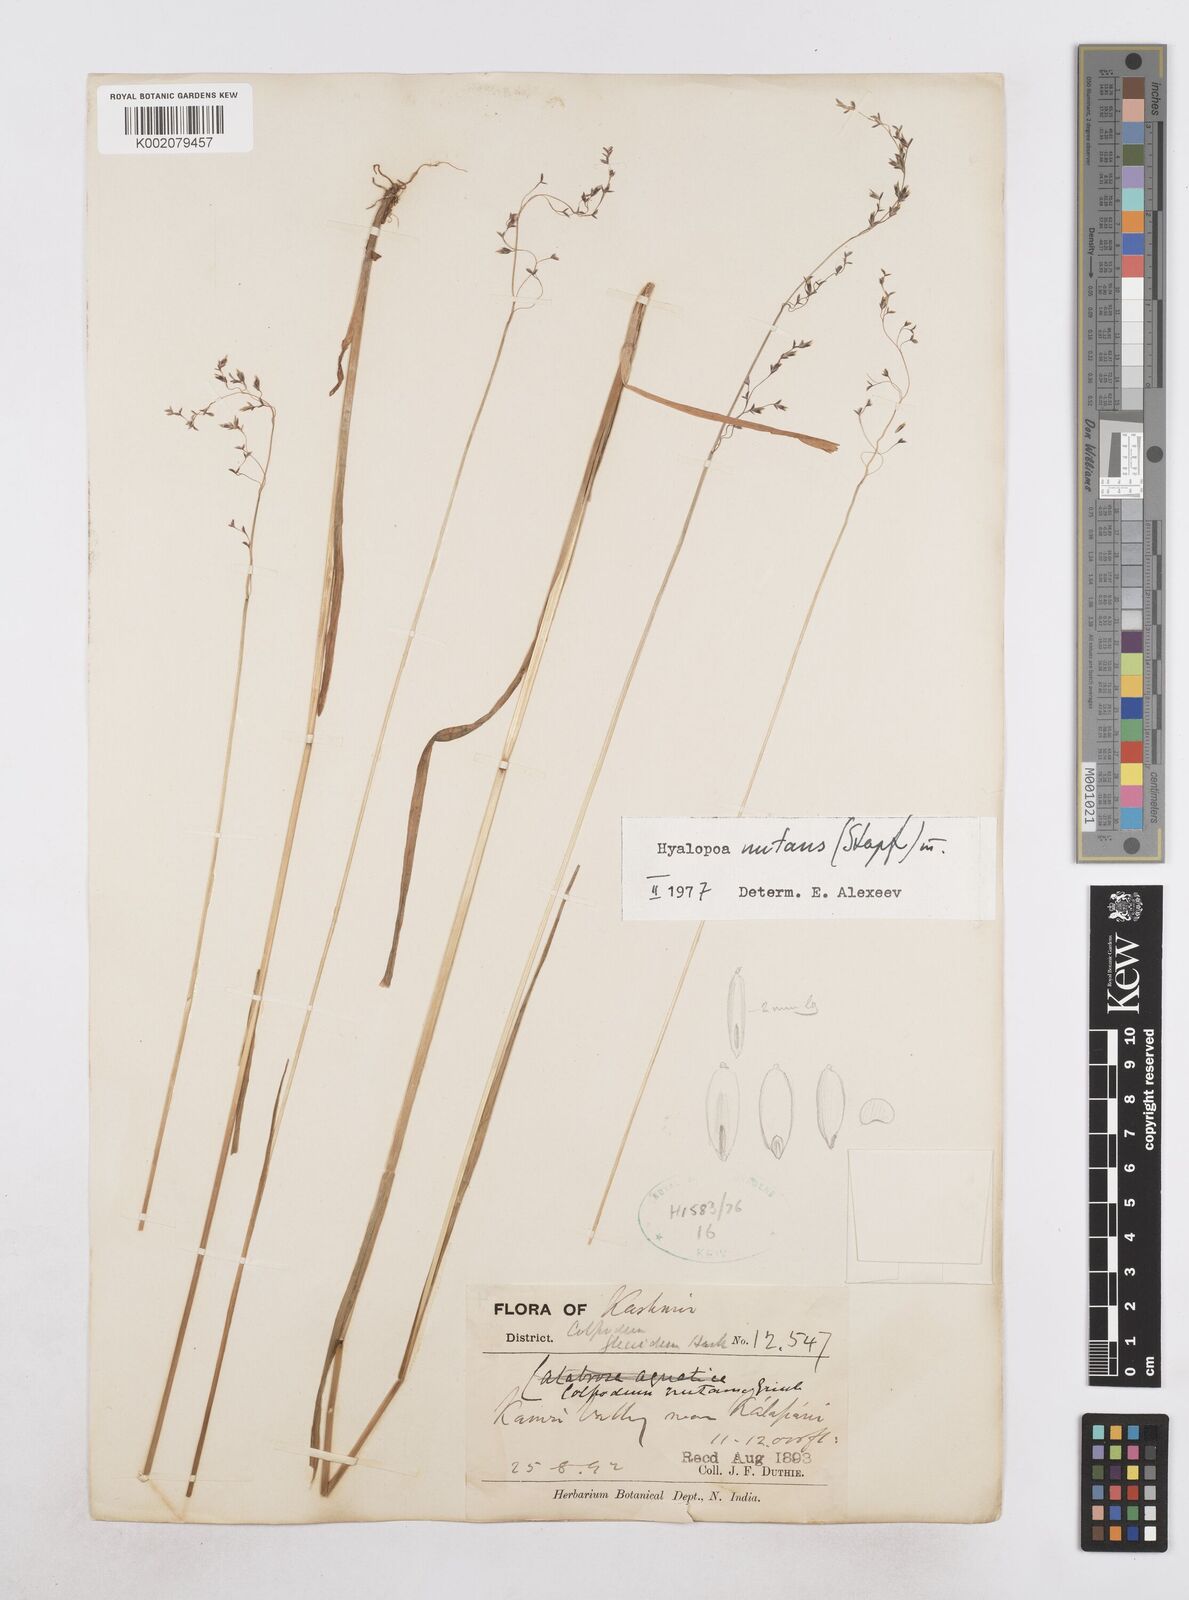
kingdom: Plantae
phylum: Tracheophyta
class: Liliopsida
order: Poales
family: Poaceae
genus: Hyalopoa
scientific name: Hyalopoa nutans
